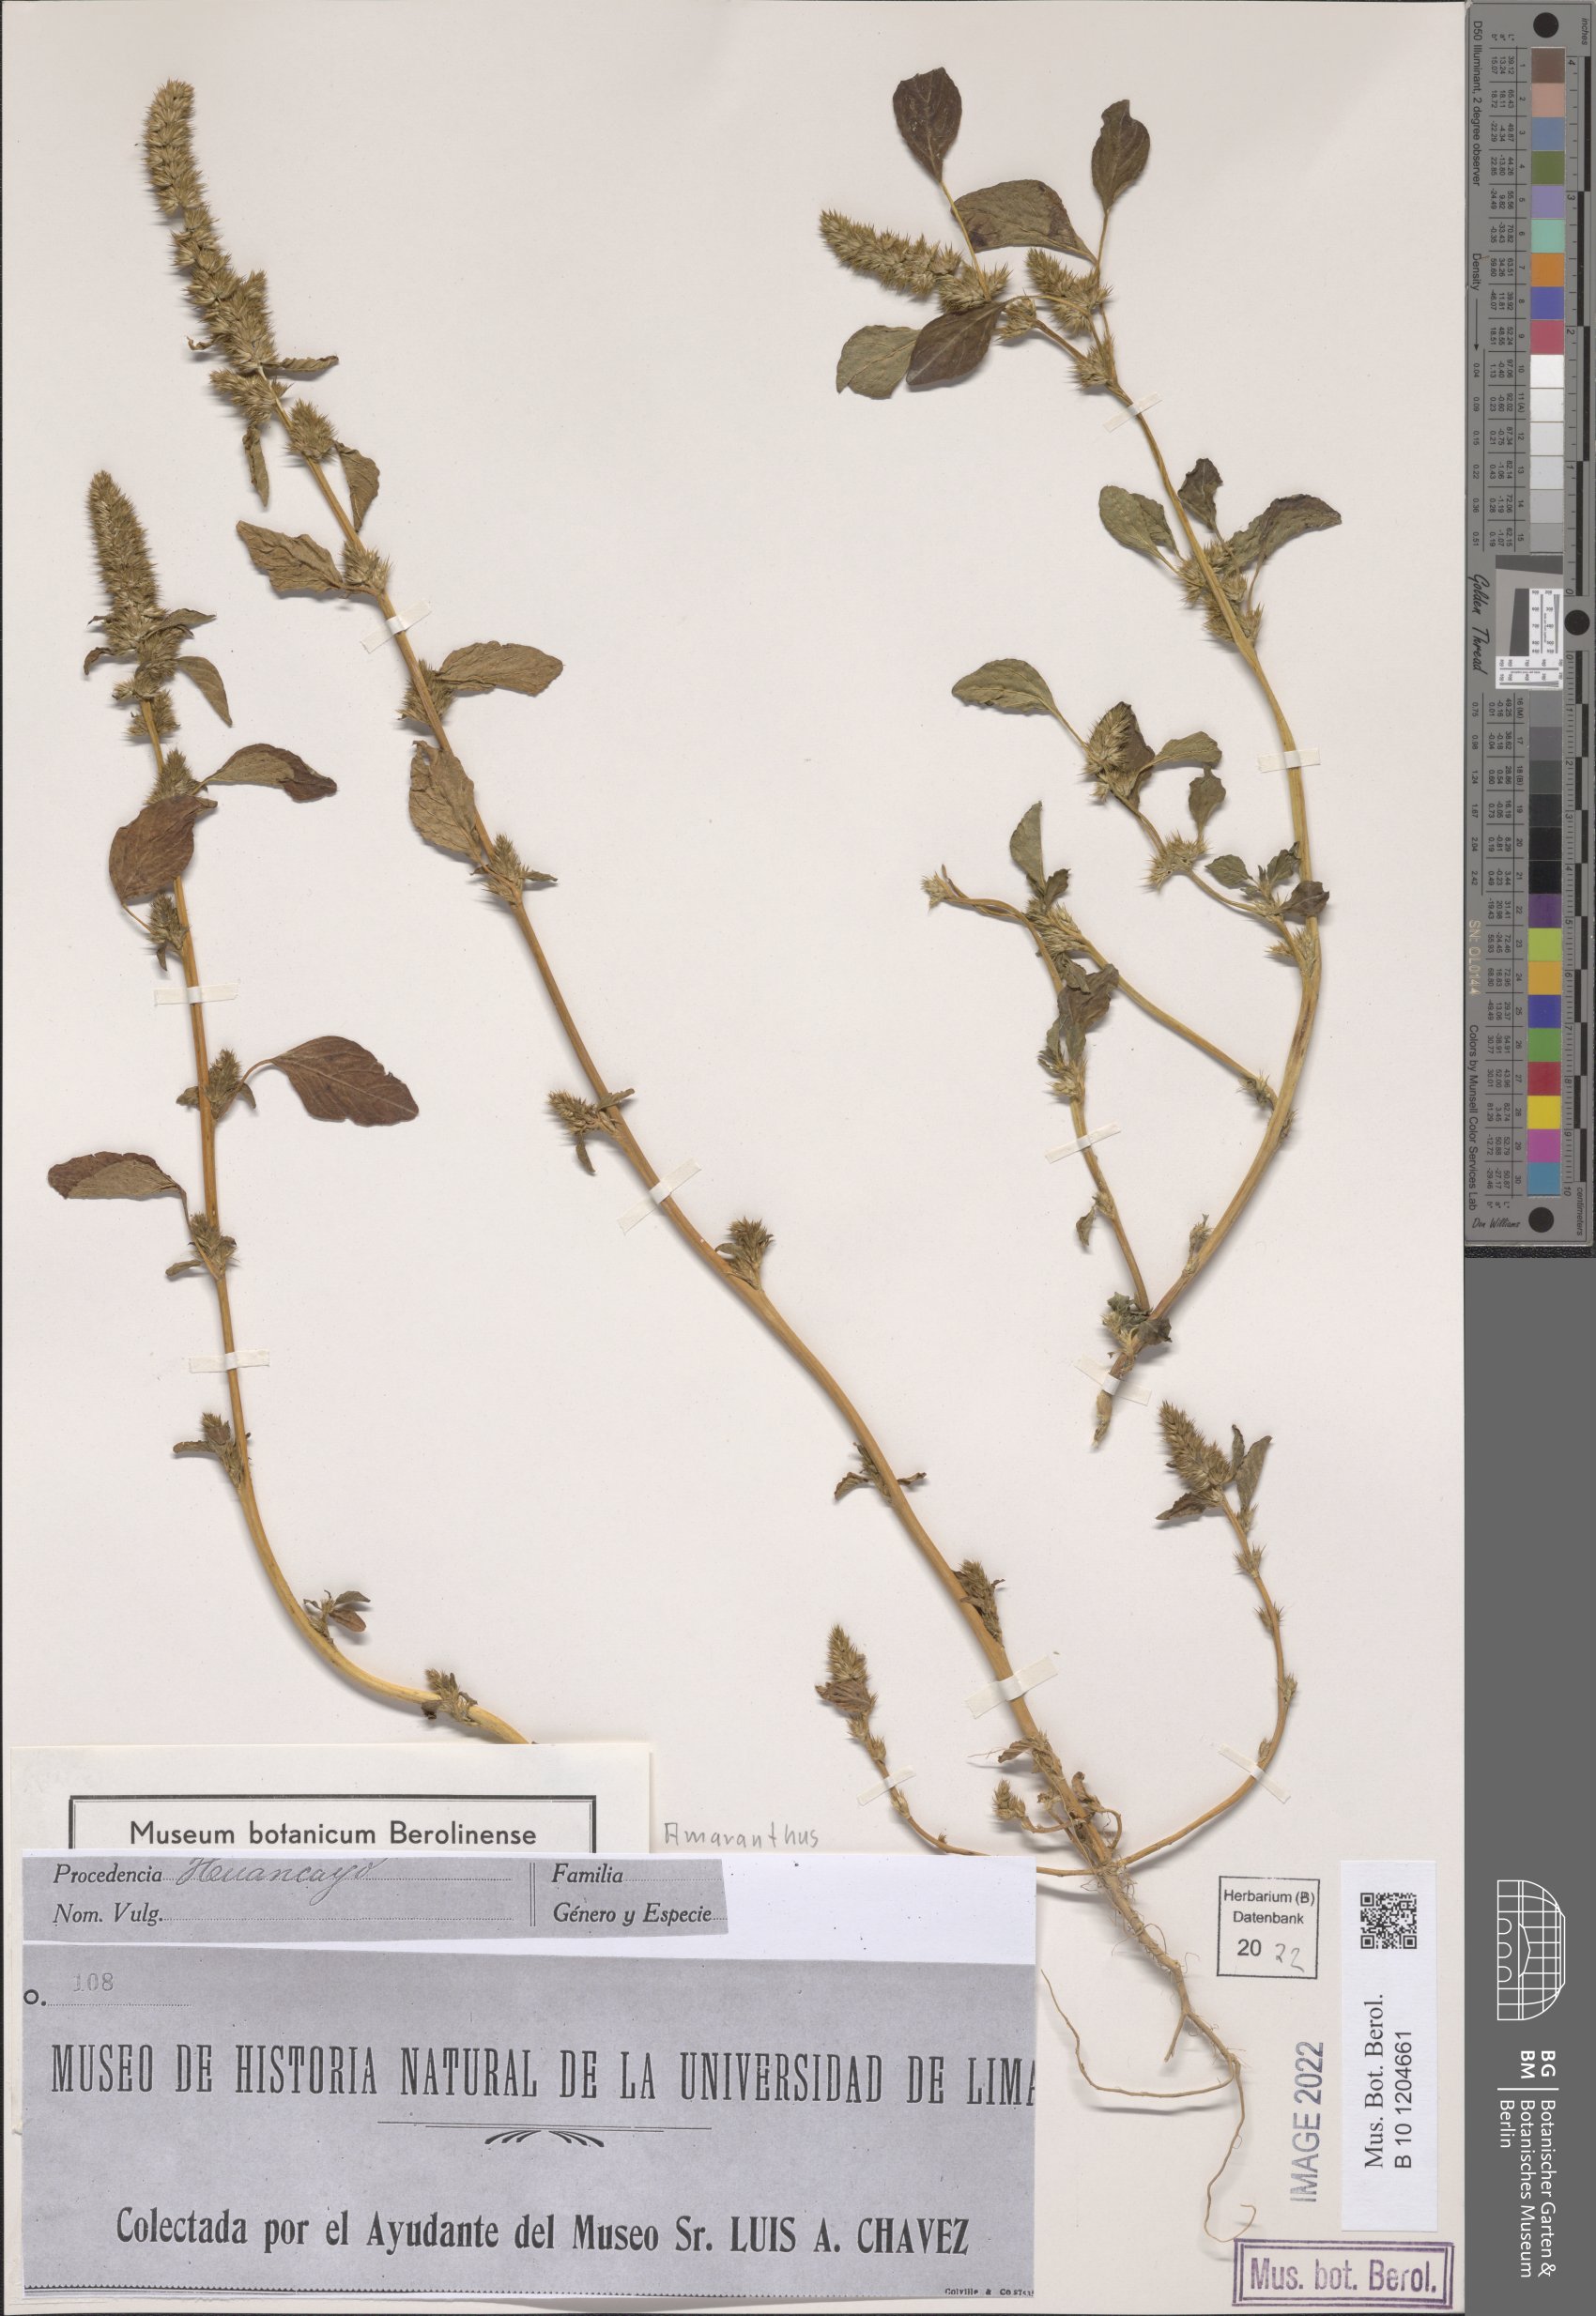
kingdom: Plantae
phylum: Tracheophyta
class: Magnoliopsida
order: Caryophyllales
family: Amaranthaceae
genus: Amaranthus
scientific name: Amaranthus
